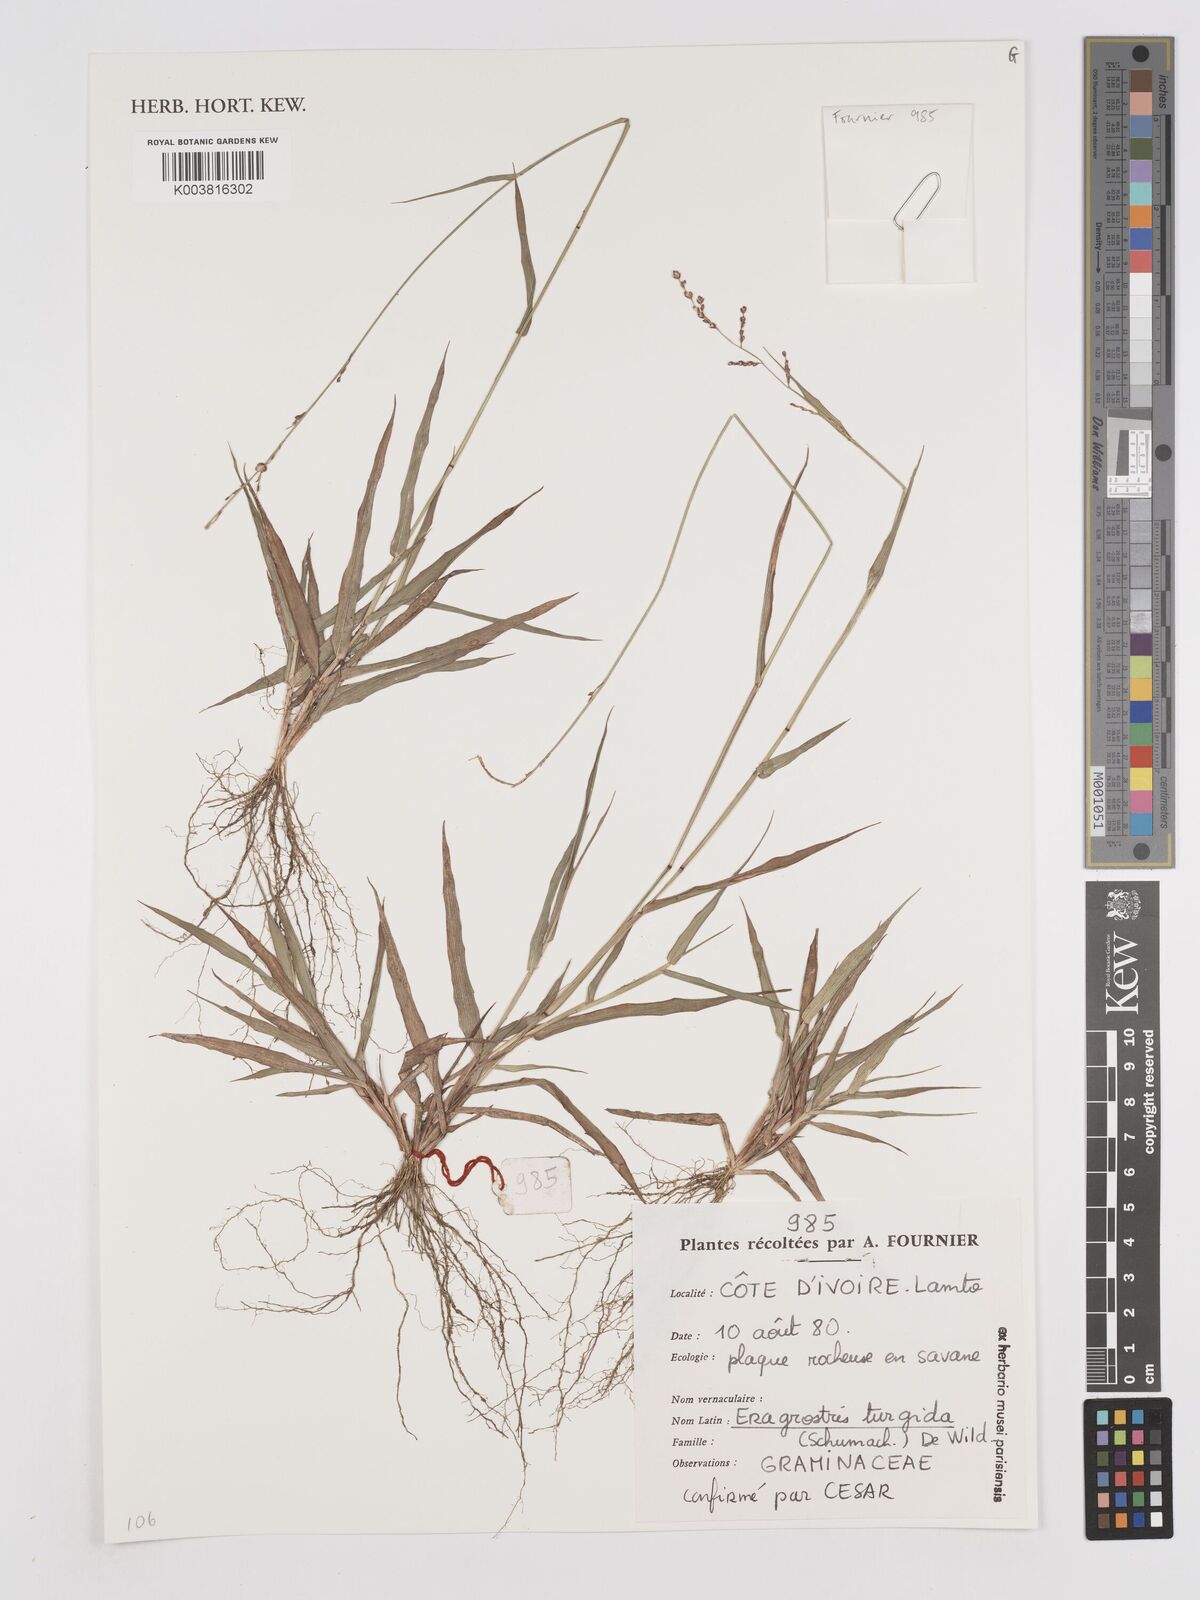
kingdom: Plantae
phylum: Tracheophyta
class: Liliopsida
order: Poales
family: Poaceae
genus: Eragrostis
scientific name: Eragrostis turgida
